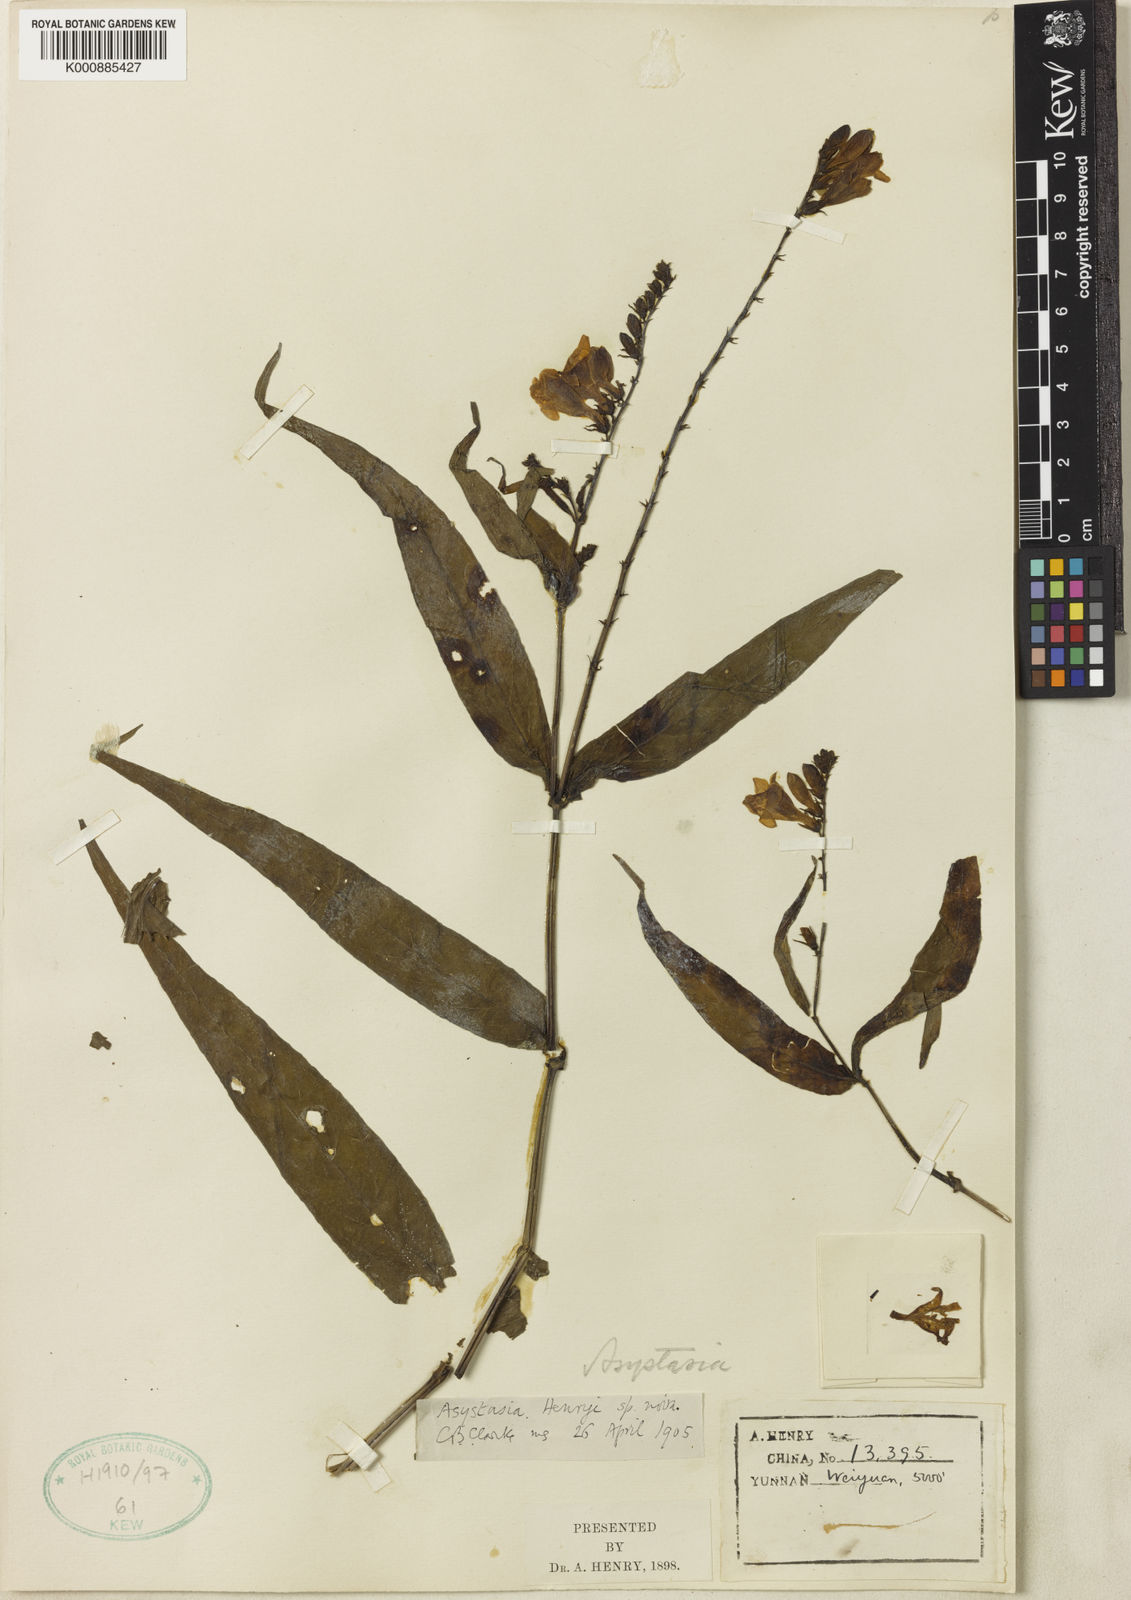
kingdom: Plantae
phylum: Tracheophyta
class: Magnoliopsida
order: Lamiales
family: Acanthaceae
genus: Asystasia
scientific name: Asystasia nemorum
